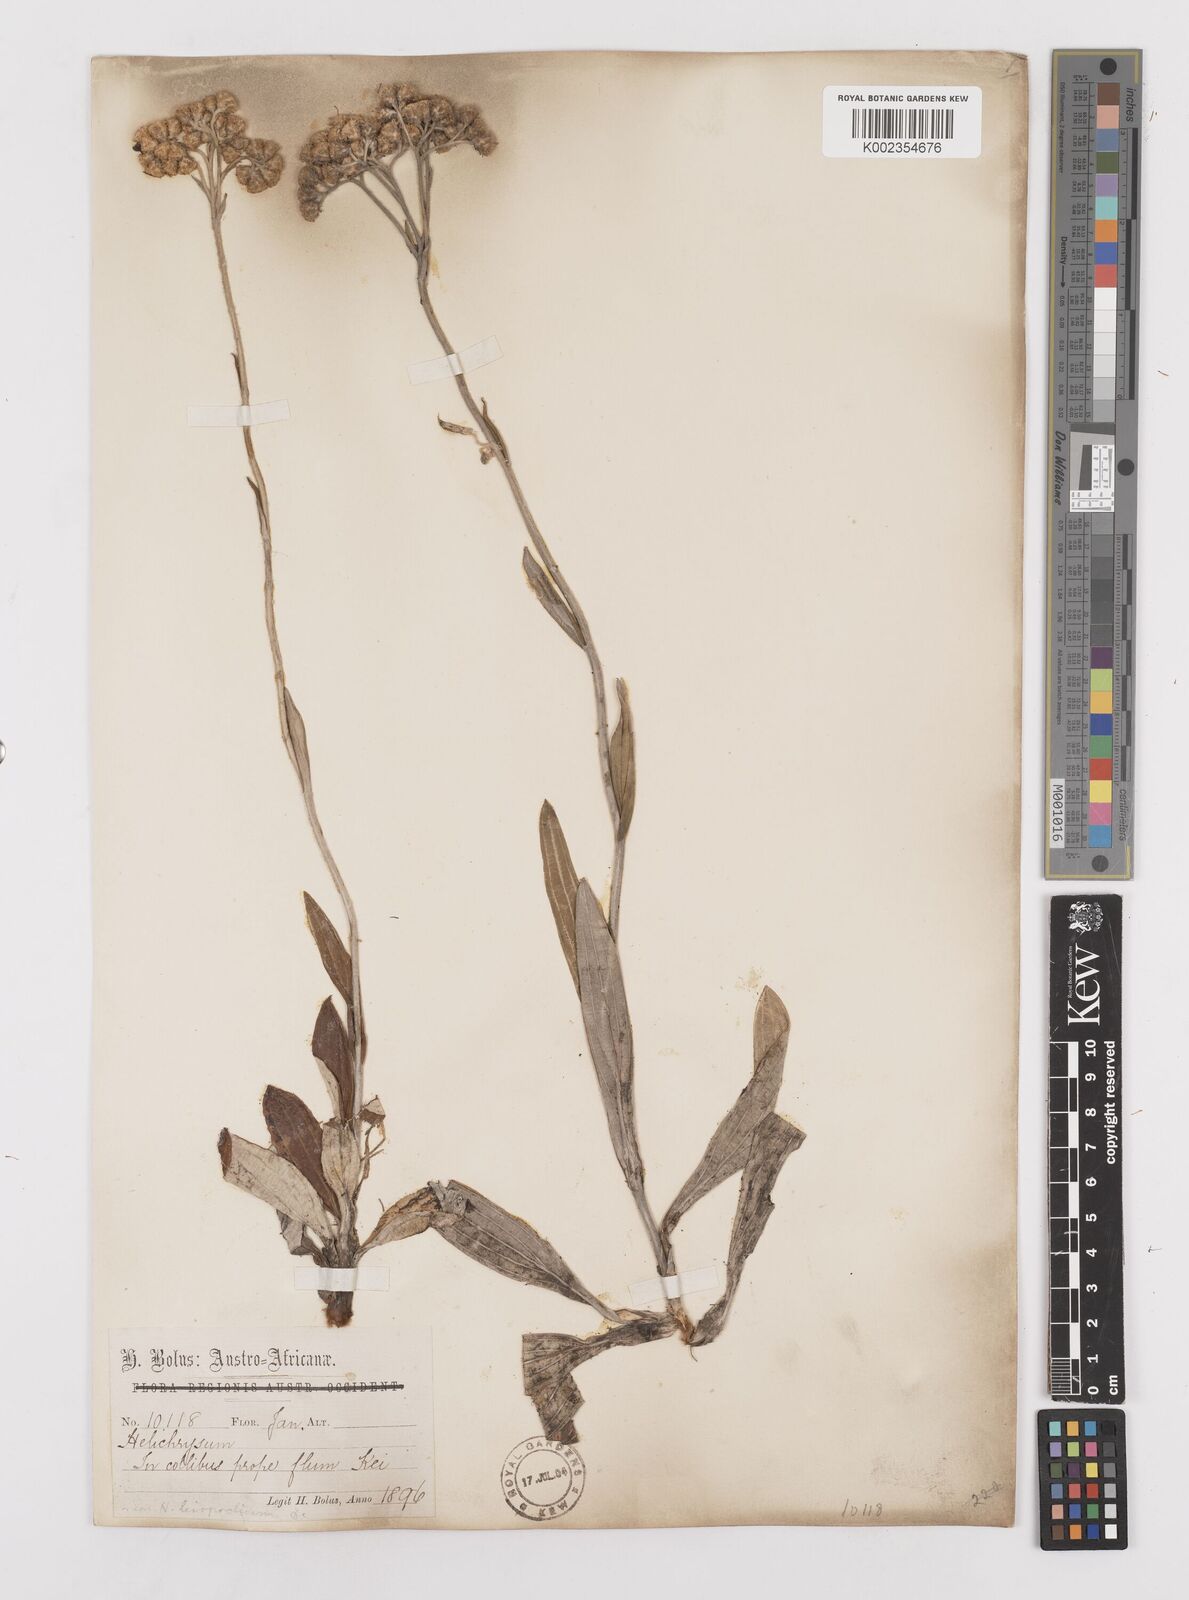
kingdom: Plantae
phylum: Tracheophyta
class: Magnoliopsida
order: Asterales
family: Asteraceae
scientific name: Asteraceae
